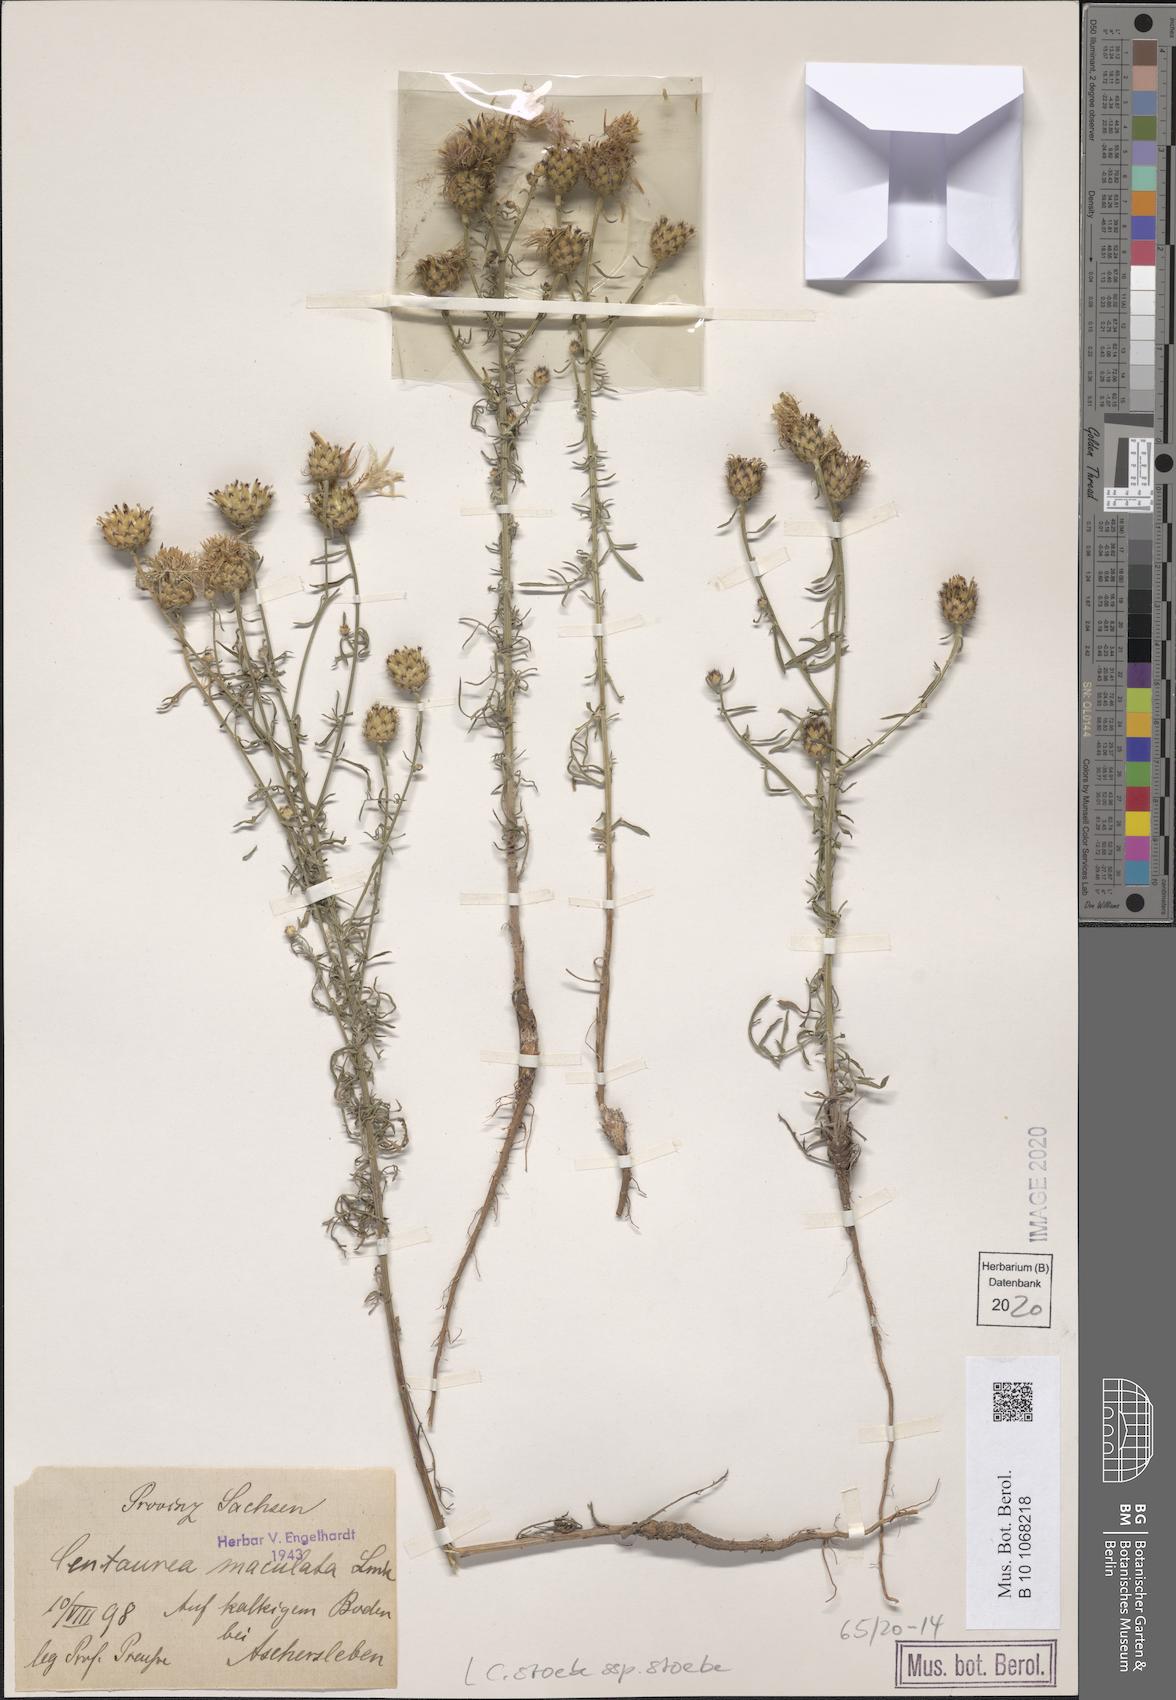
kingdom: Plantae
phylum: Tracheophyta
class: Magnoliopsida
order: Asterales
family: Asteraceae
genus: Centaurea
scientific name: Centaurea stoebe
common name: Spotted knapweed
